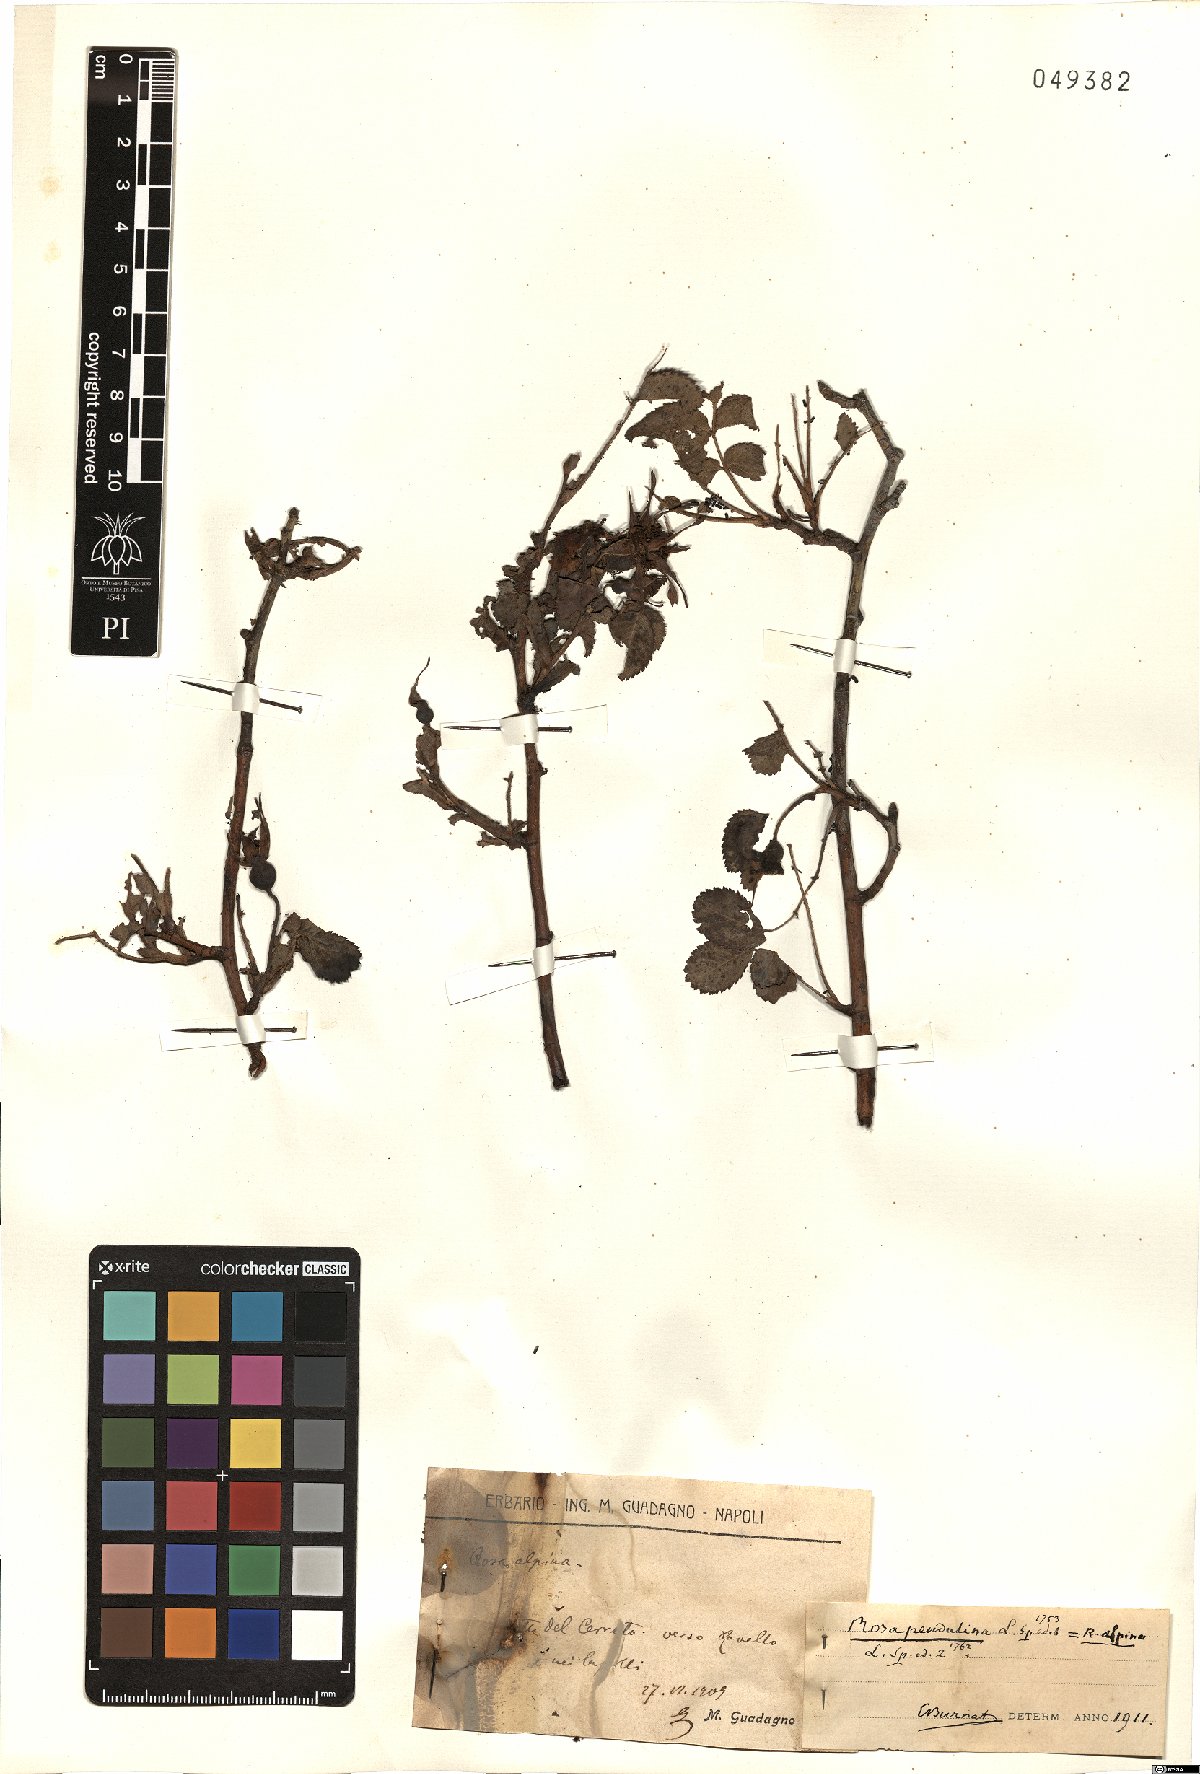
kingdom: Plantae
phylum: Tracheophyta
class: Magnoliopsida
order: Rosales
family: Rosaceae
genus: Rosa
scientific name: Rosa pendulina
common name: Alpine rose
